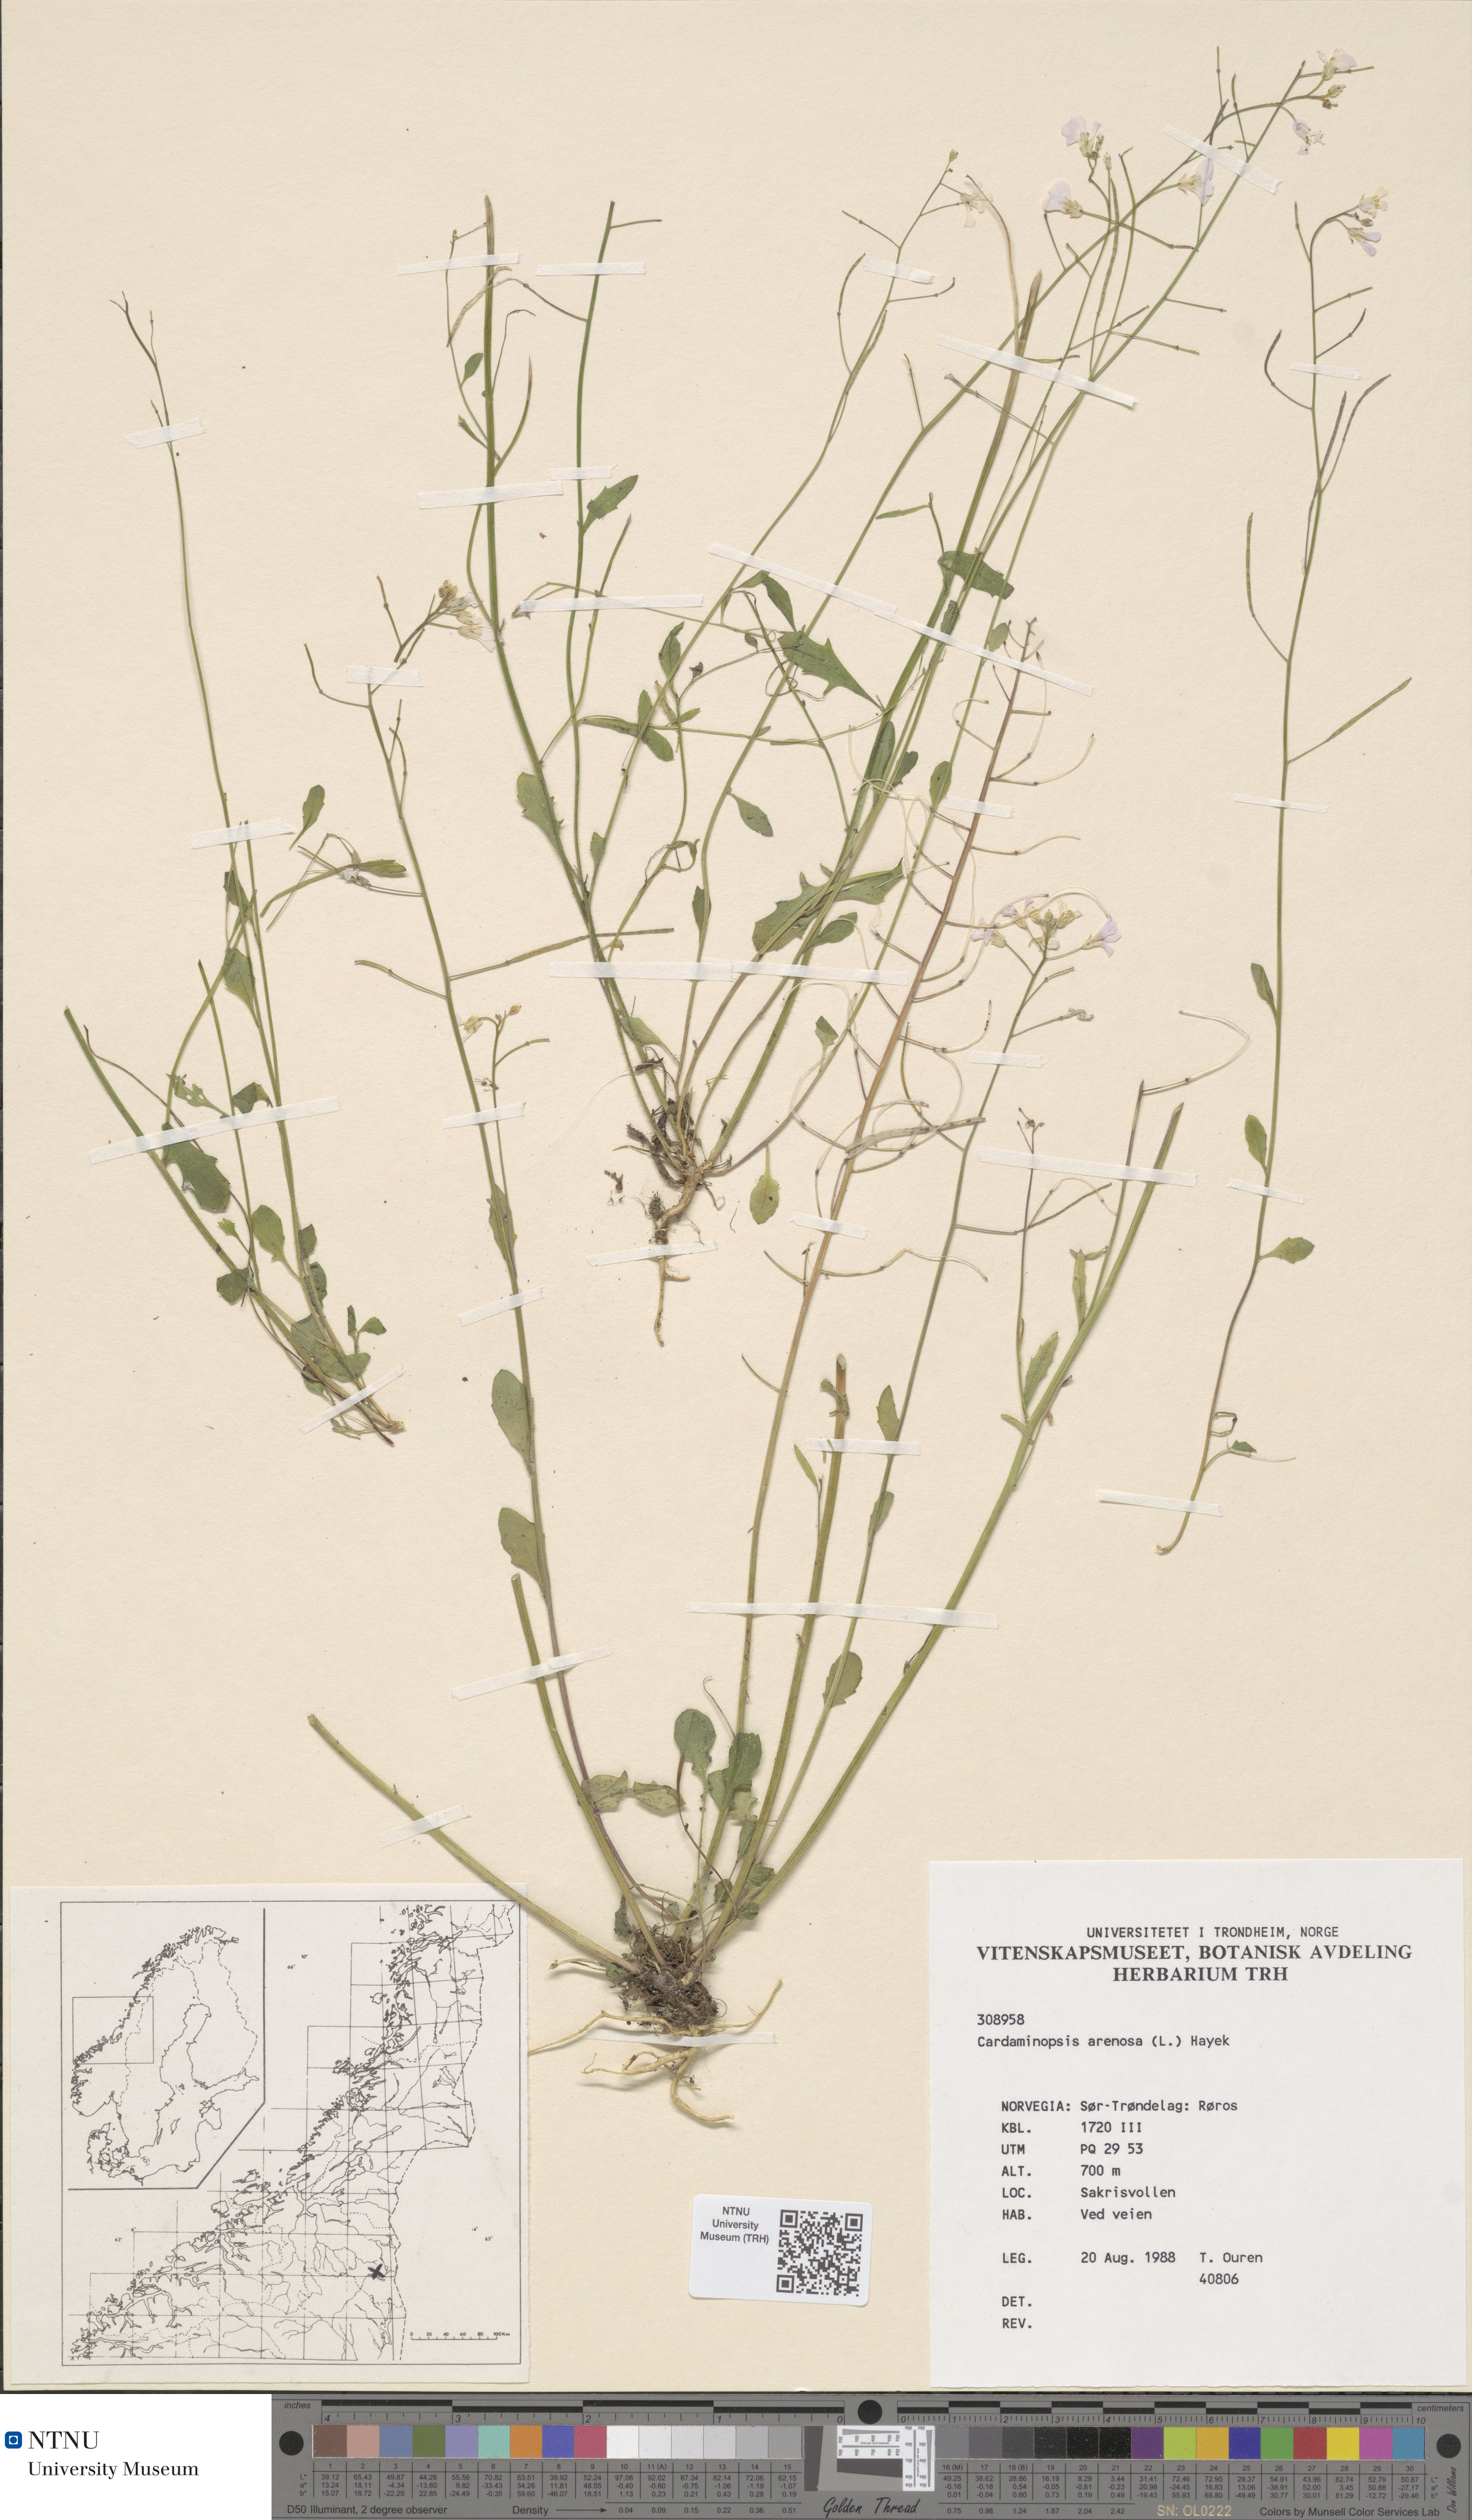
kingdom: Plantae
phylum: Tracheophyta
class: Magnoliopsida
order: Brassicales
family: Brassicaceae
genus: Arabidopsis
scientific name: Arabidopsis arenosa
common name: Sand rock-cress
